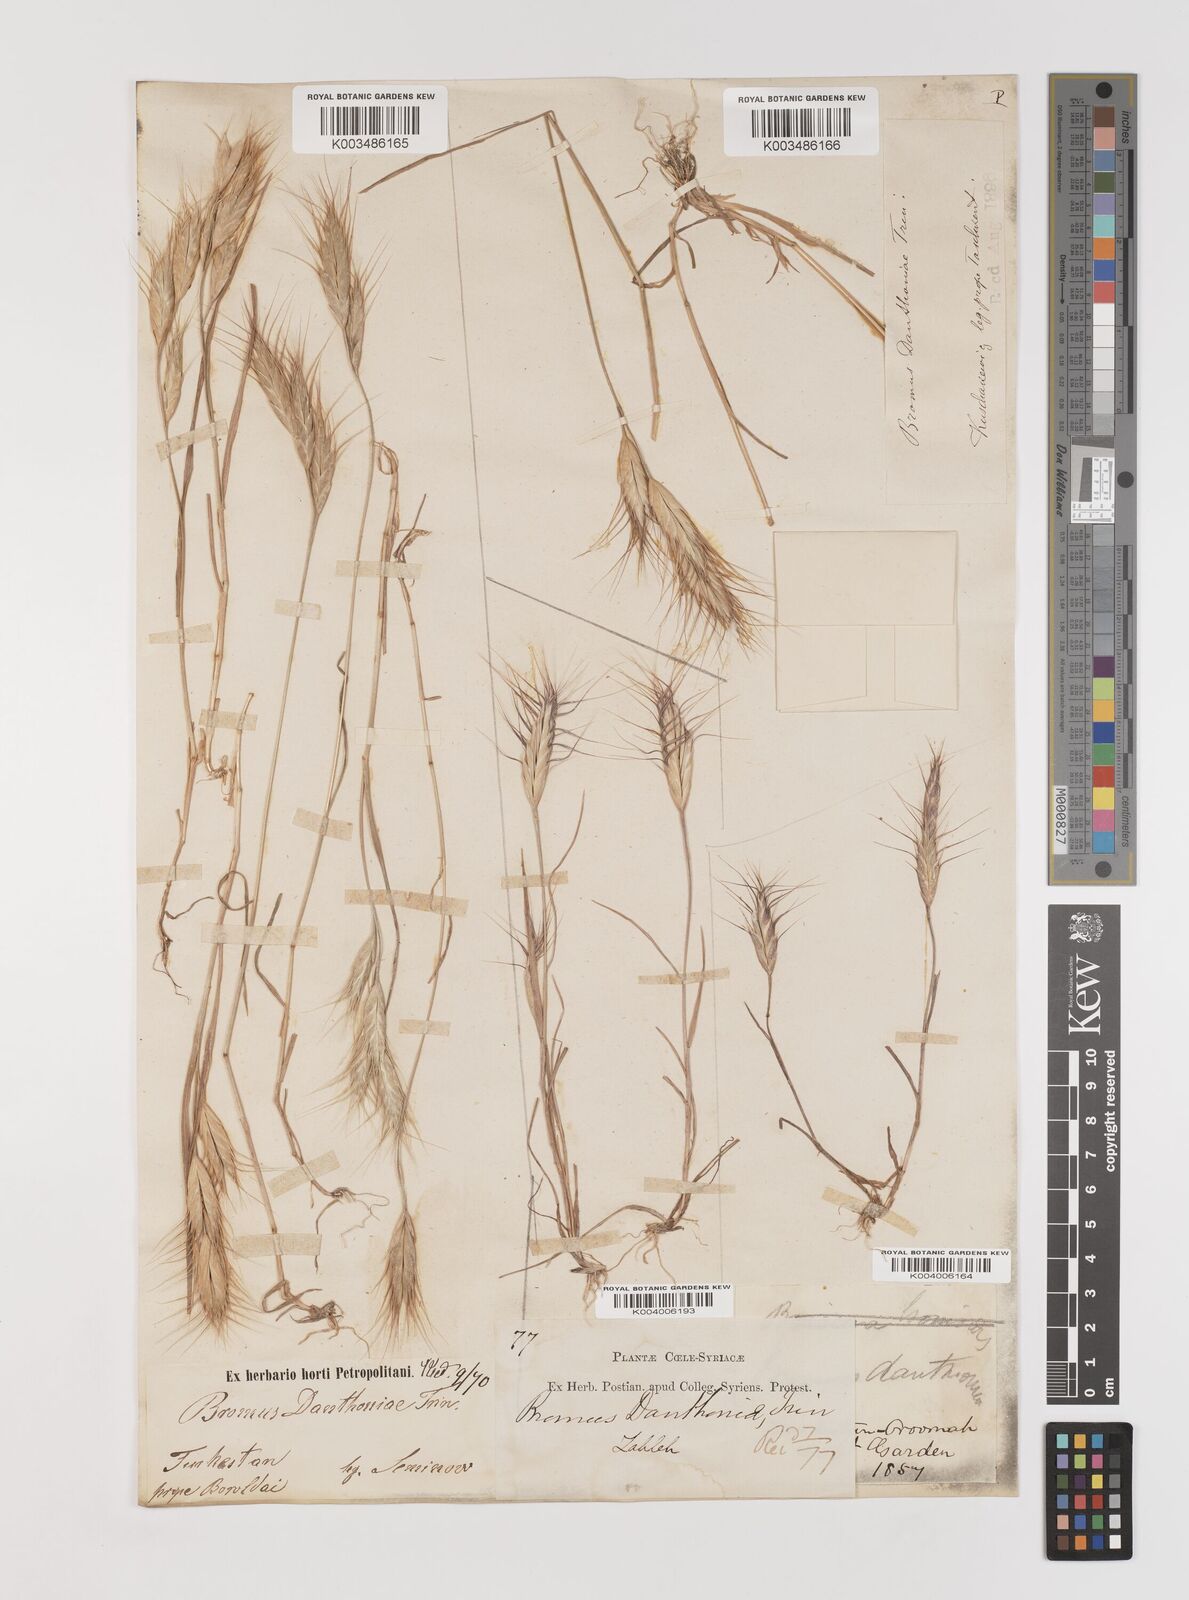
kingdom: Plantae
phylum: Tracheophyta
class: Liliopsida
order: Poales
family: Poaceae
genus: Bromus
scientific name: Bromus danthoniae
